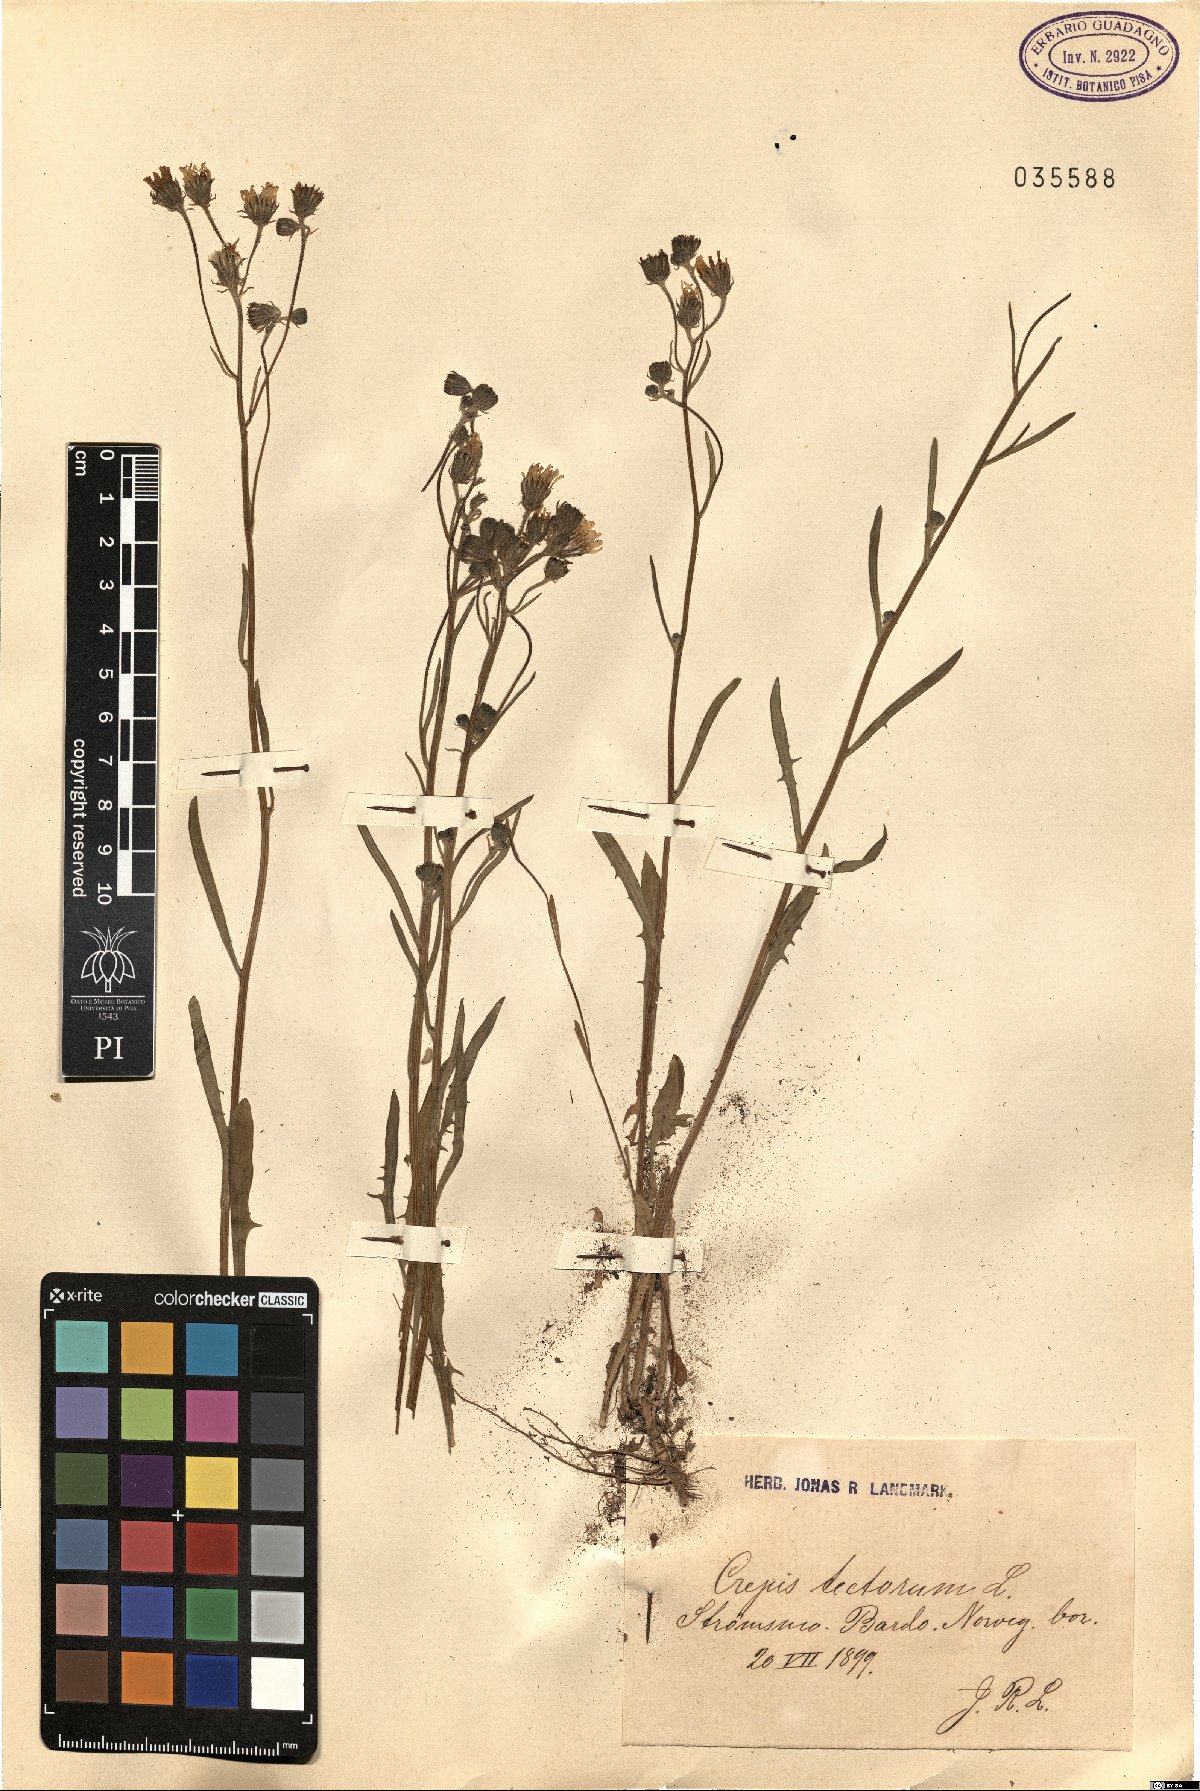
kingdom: Plantae
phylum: Tracheophyta
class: Magnoliopsida
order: Asterales
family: Asteraceae
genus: Crepis
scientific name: Crepis tectorum
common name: Narrow-leaved hawk's-beard
